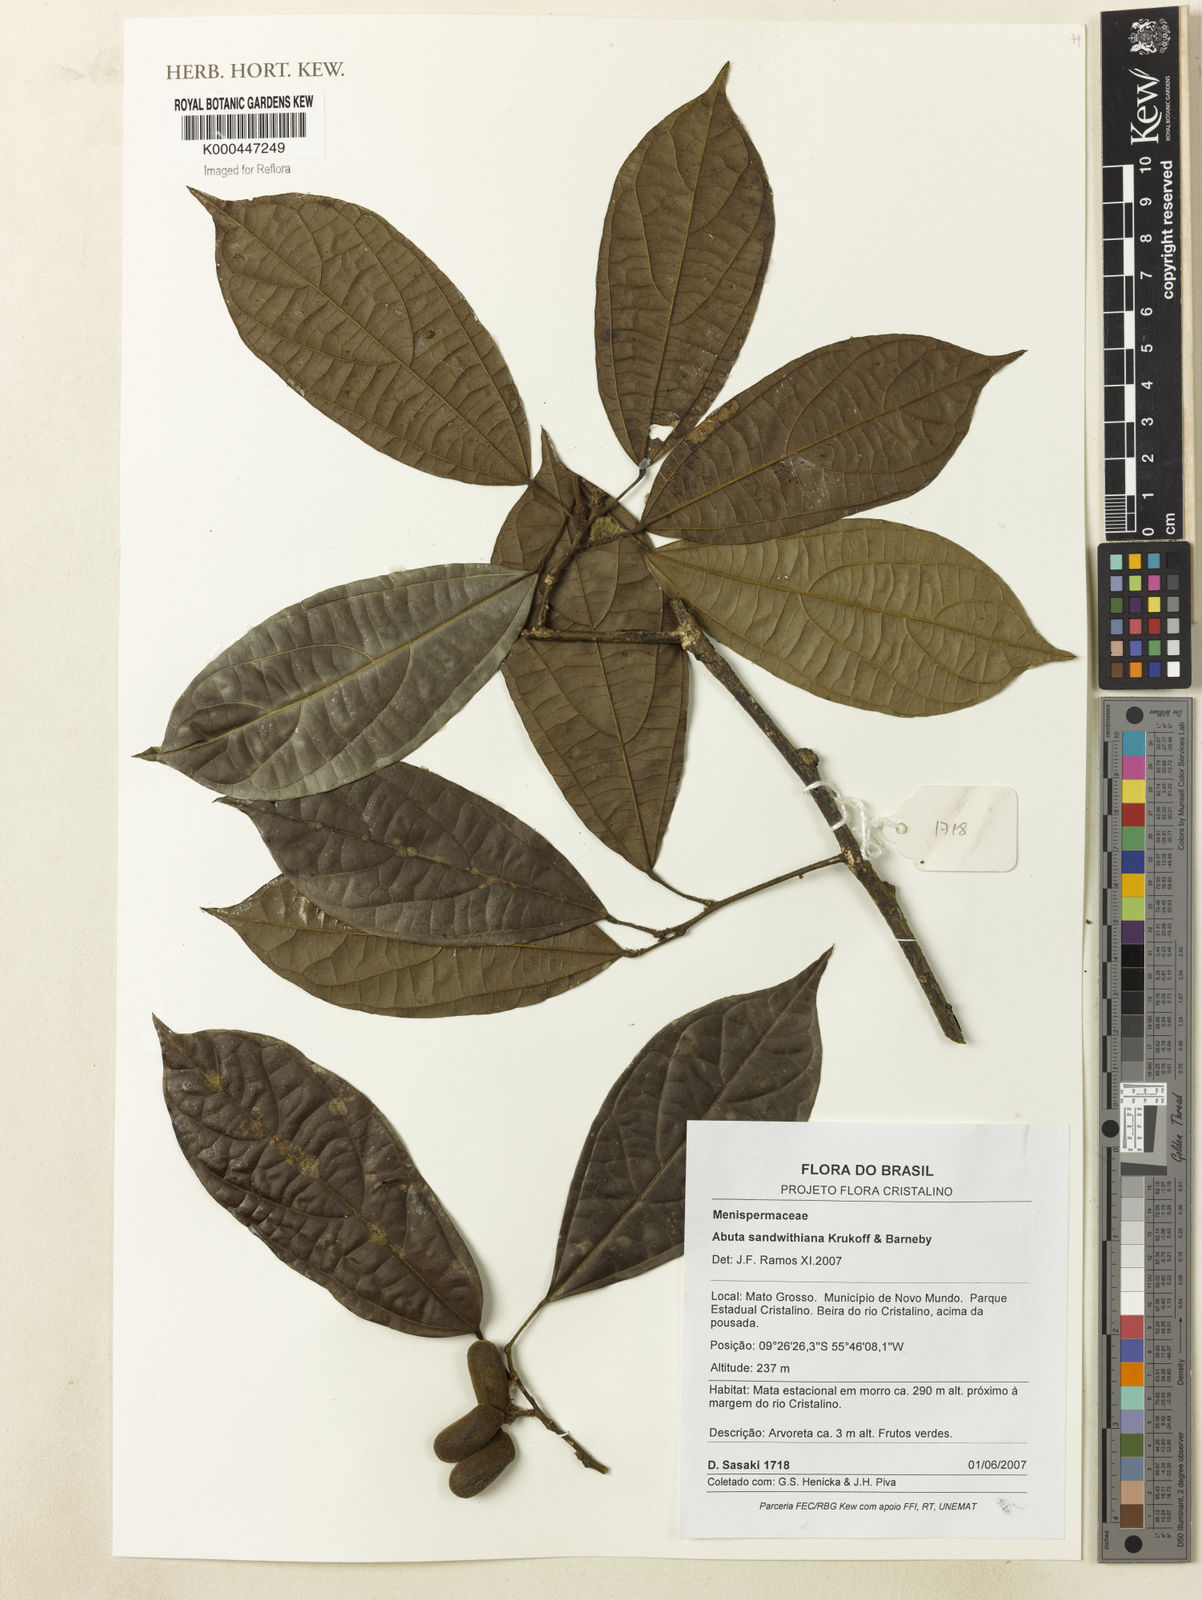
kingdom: Plantae
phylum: Tracheophyta
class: Magnoliopsida
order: Ranunculales
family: Menispermaceae
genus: Abuta
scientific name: Abuta sandwithiana
